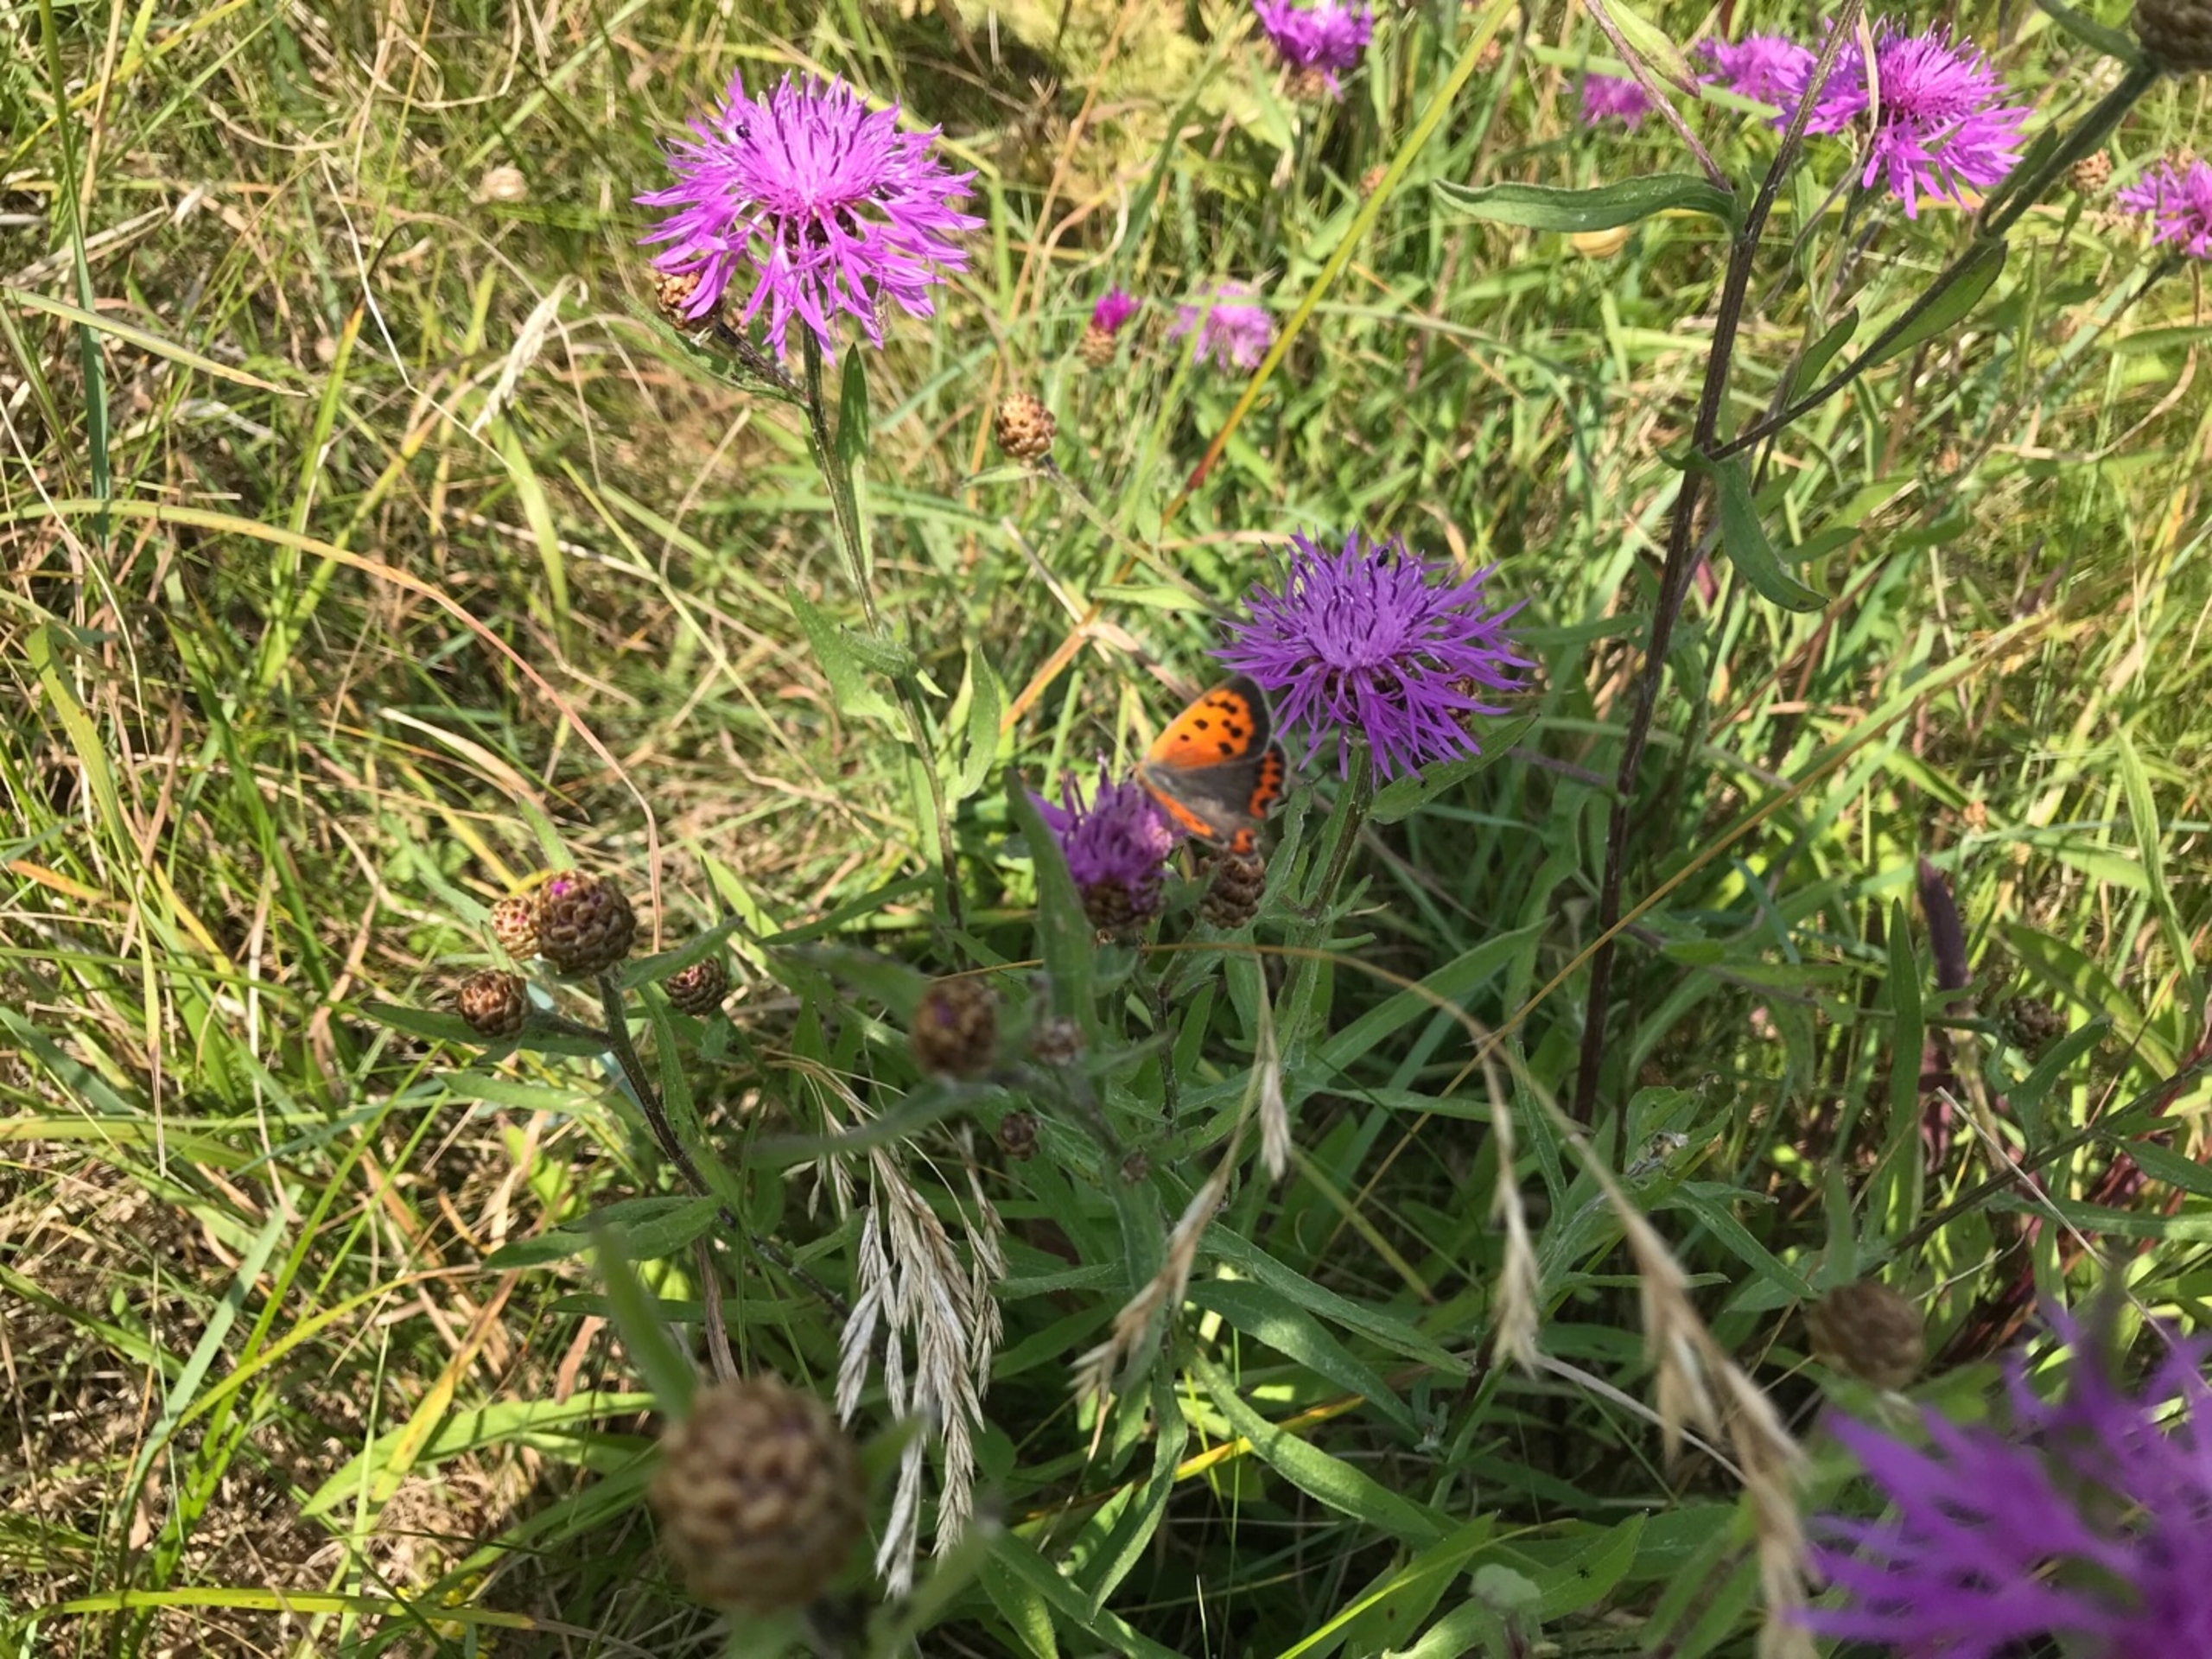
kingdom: Animalia
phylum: Arthropoda
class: Insecta
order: Lepidoptera
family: Lycaenidae
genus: Lycaena
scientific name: Lycaena phlaeas
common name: Lille ildfugl
